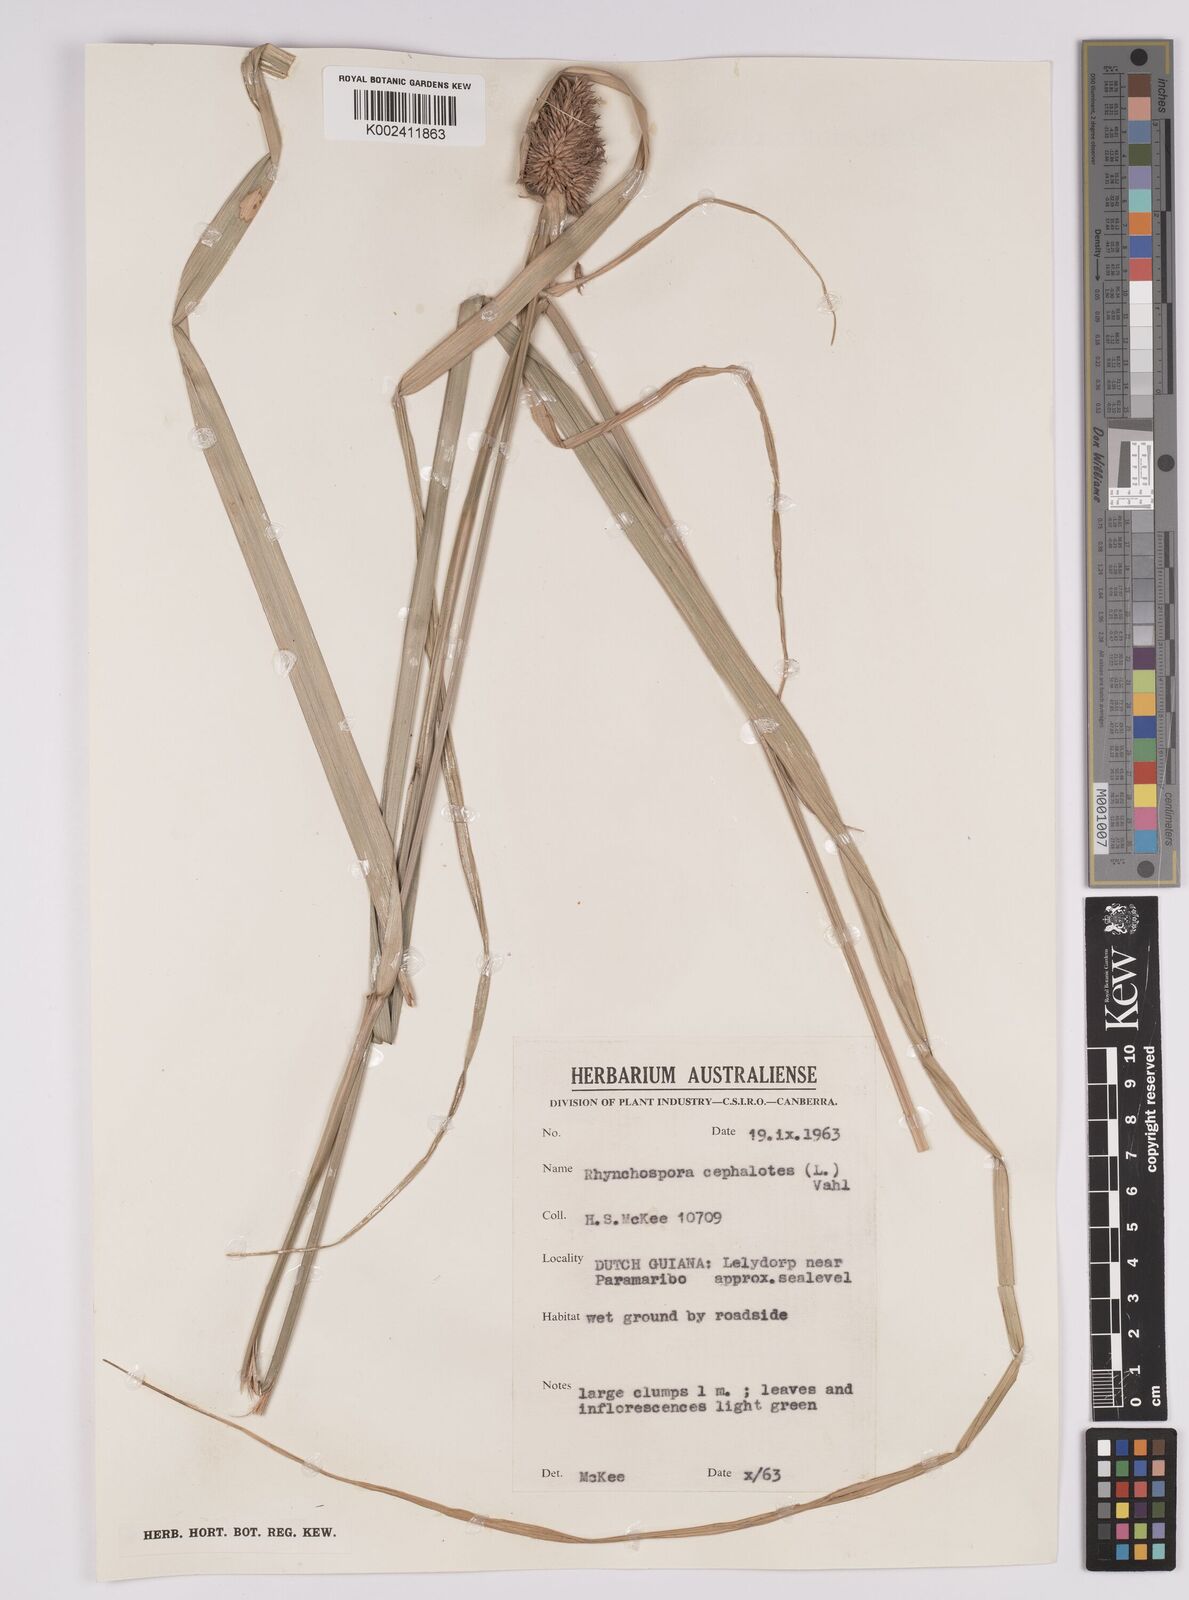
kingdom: Plantae
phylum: Tracheophyta
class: Liliopsida
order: Poales
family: Cyperaceae
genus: Rhynchospora
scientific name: Rhynchospora cephalotes
